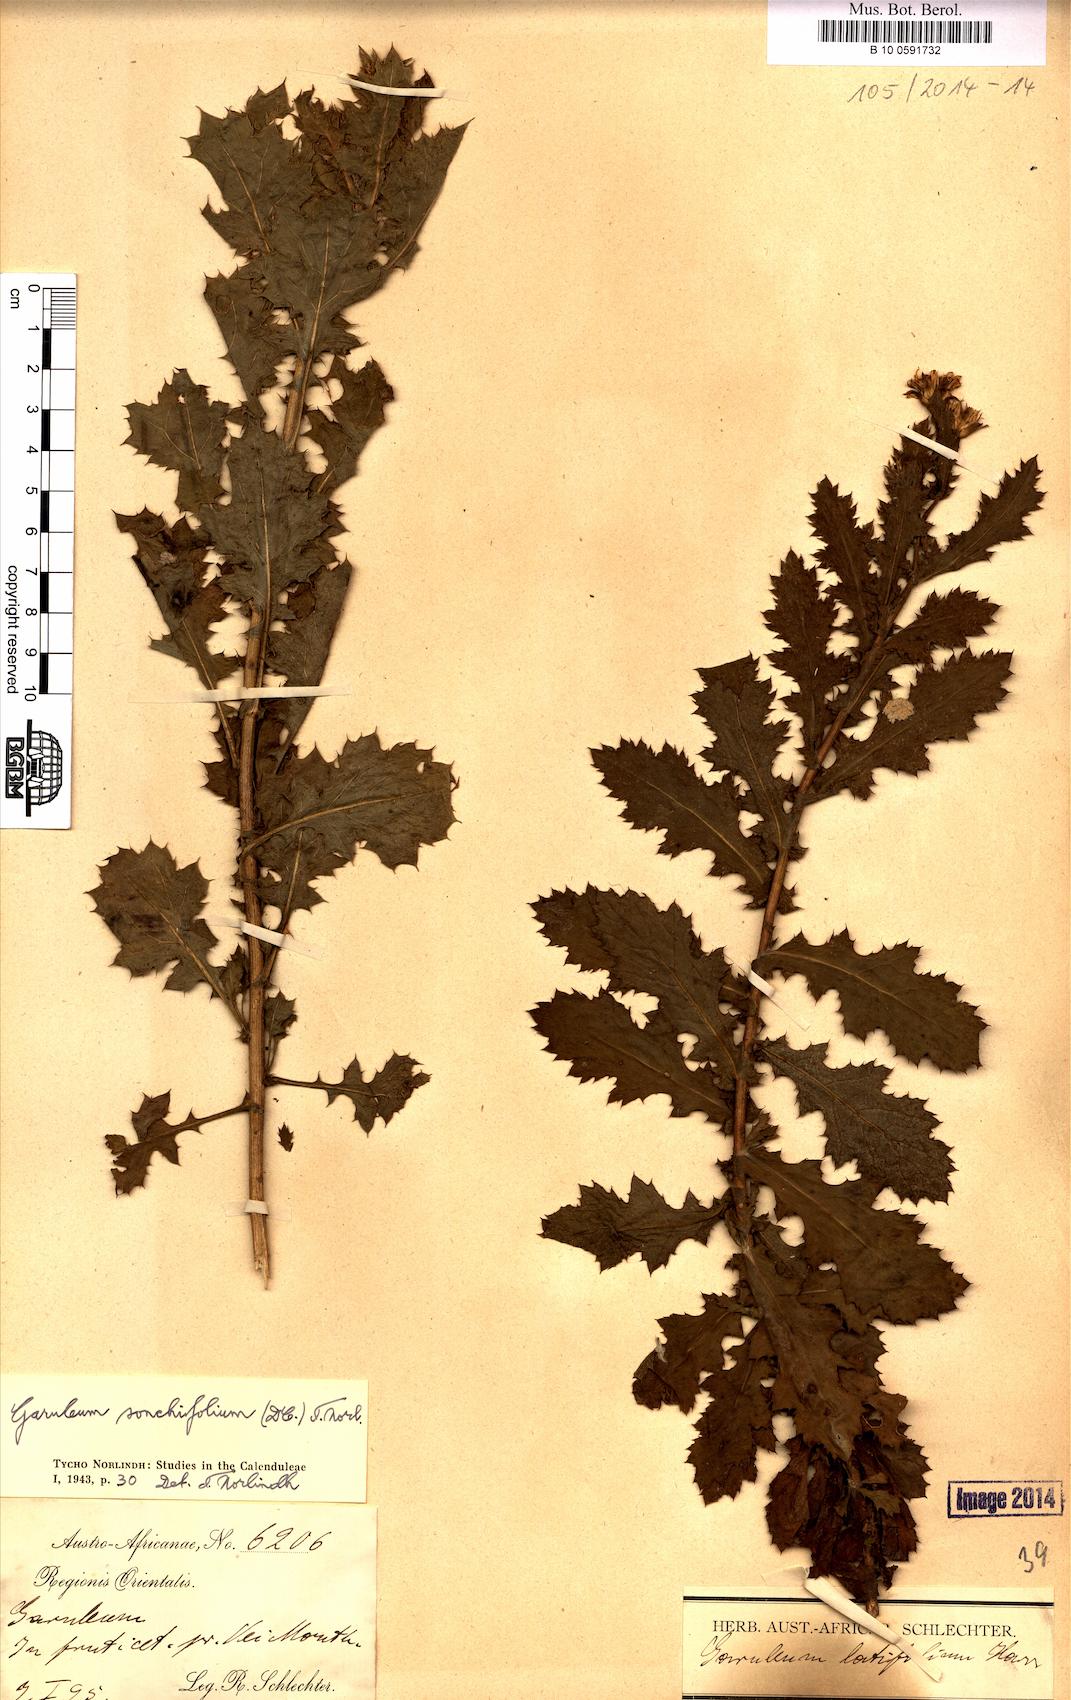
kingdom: Plantae
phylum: Tracheophyta
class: Magnoliopsida
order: Asterales
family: Asteraceae
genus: Garuleum
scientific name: Garuleum sonchifolium
